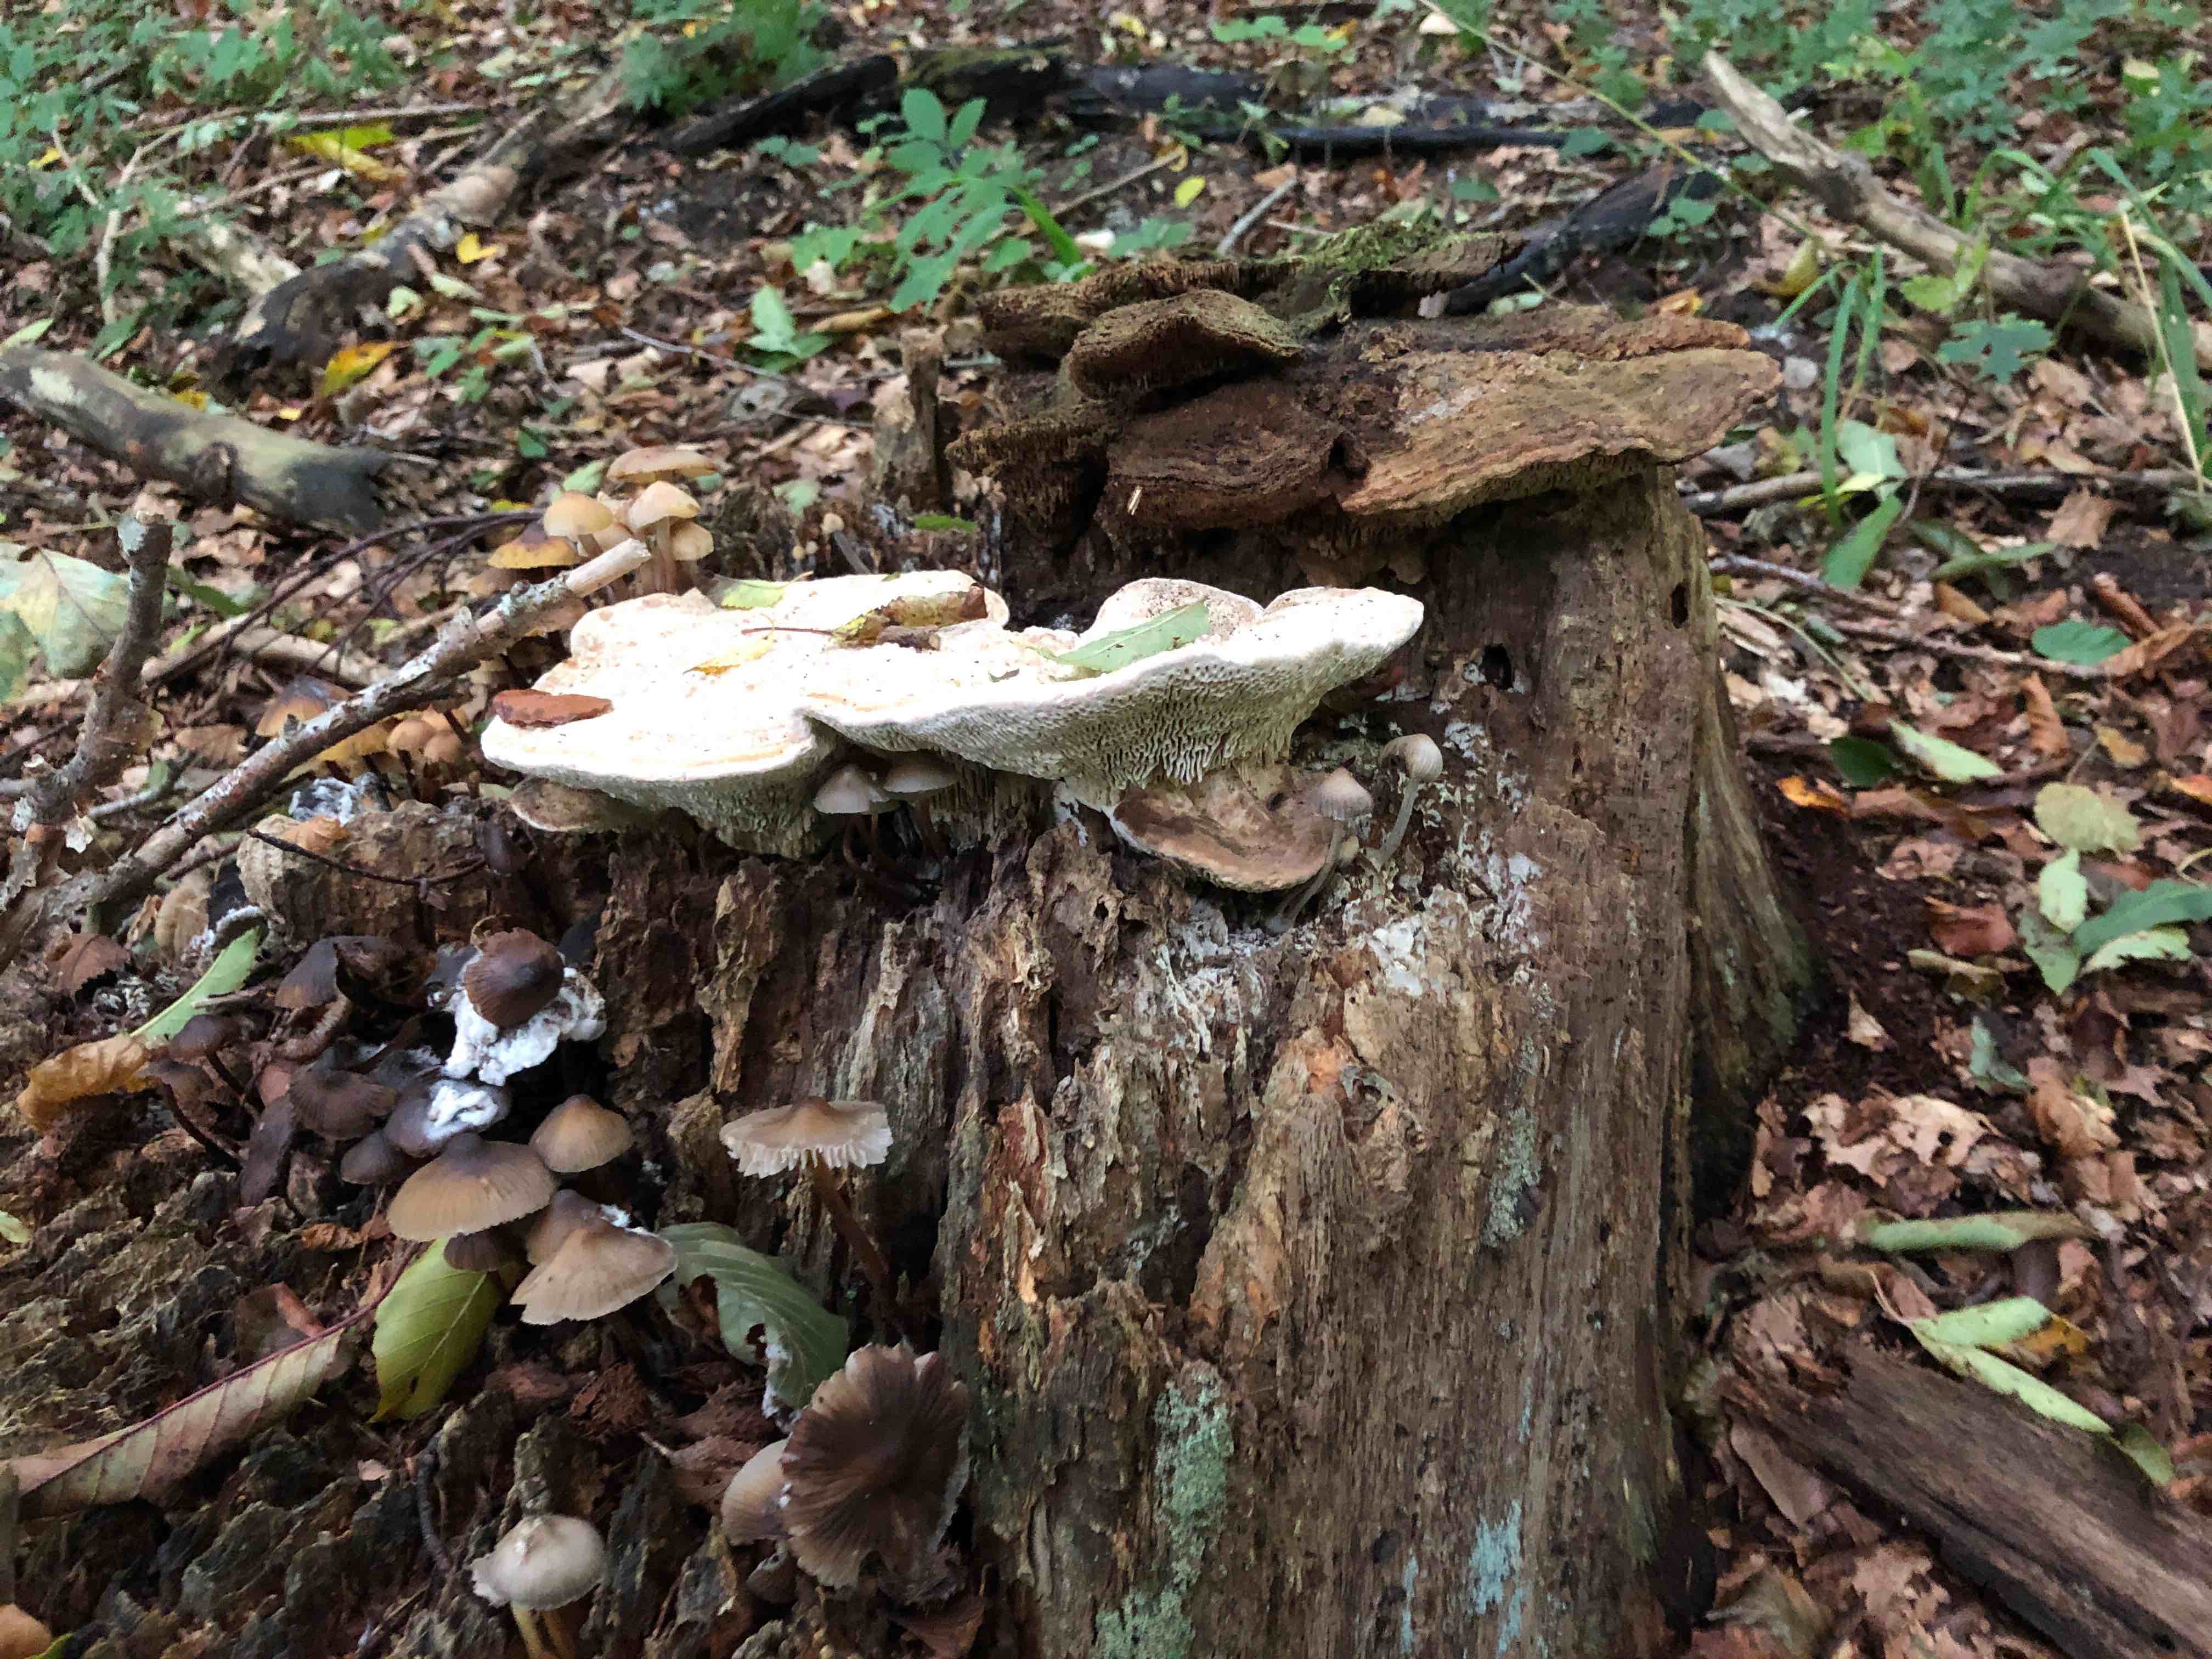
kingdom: Fungi
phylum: Basidiomycota
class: Agaricomycetes
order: Polyporales
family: Fomitopsidaceae
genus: Daedalea
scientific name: Daedalea quercina
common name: ege-labyrintsvamp
